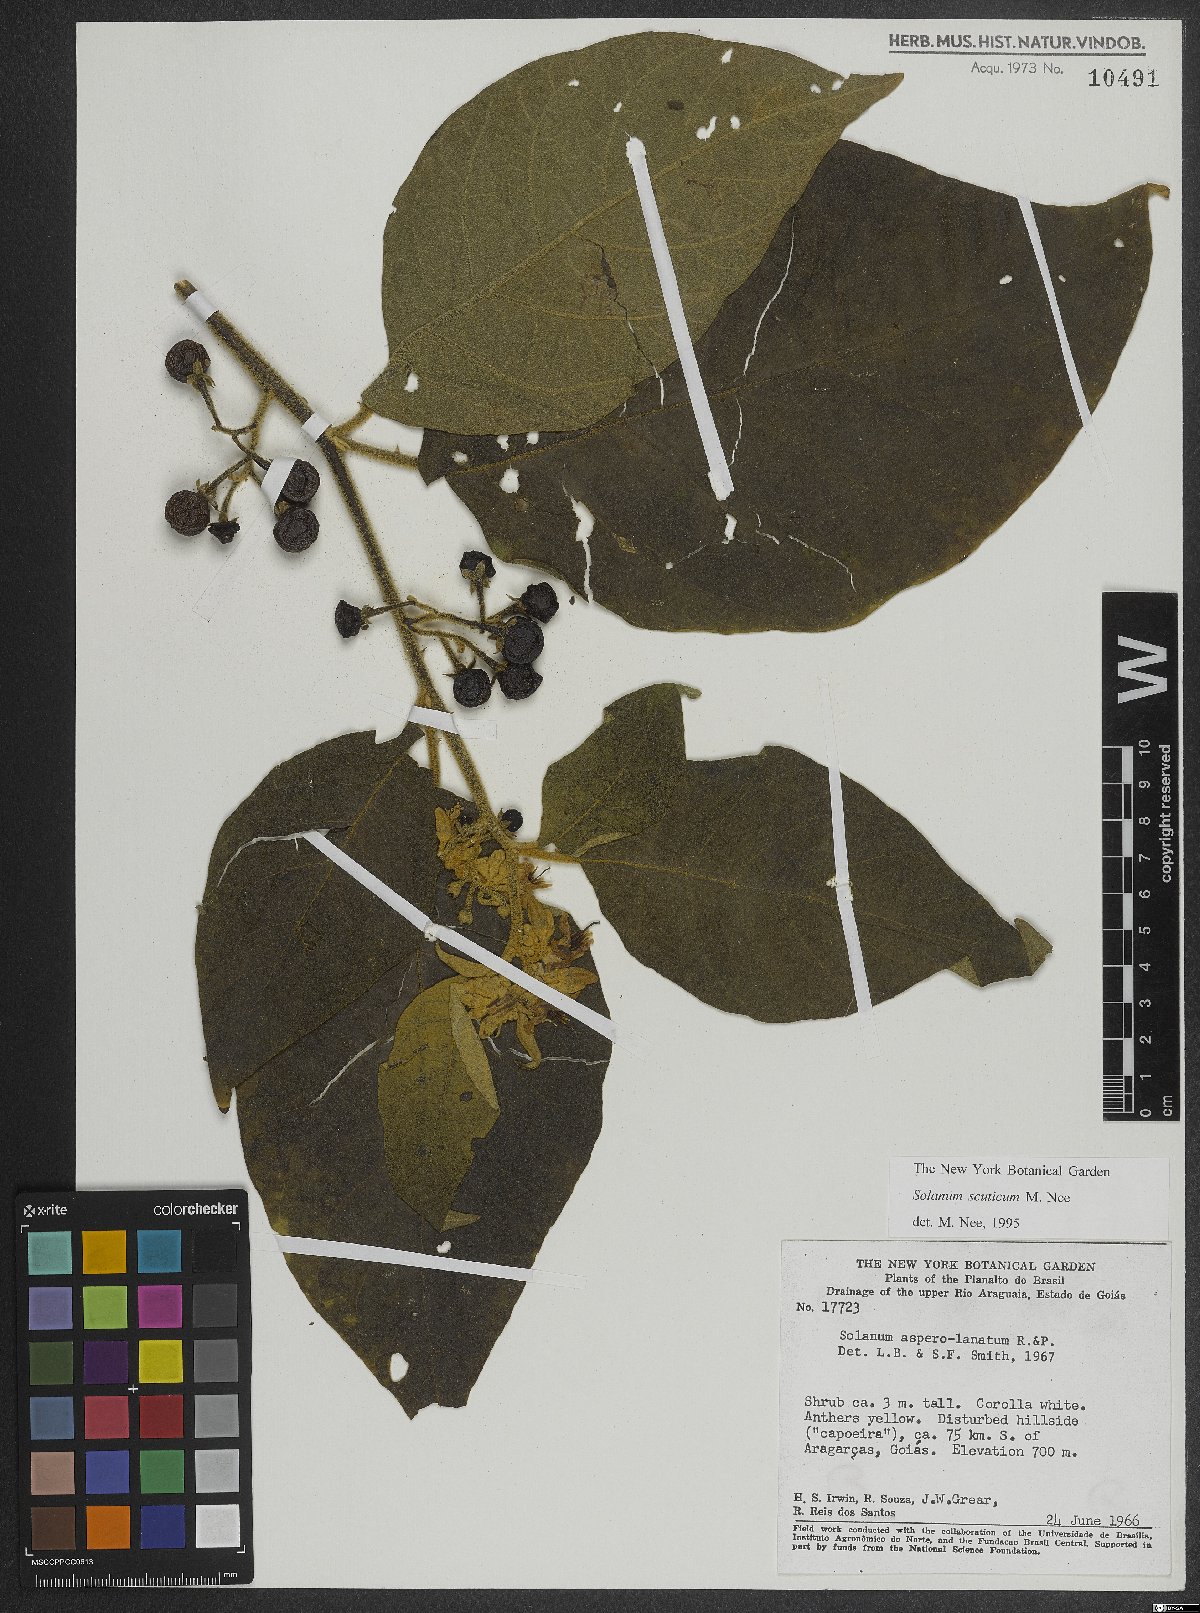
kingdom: Plantae
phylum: Tracheophyta
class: Magnoliopsida
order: Solanales
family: Solanaceae
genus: Solanum
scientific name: Solanum scuticum
